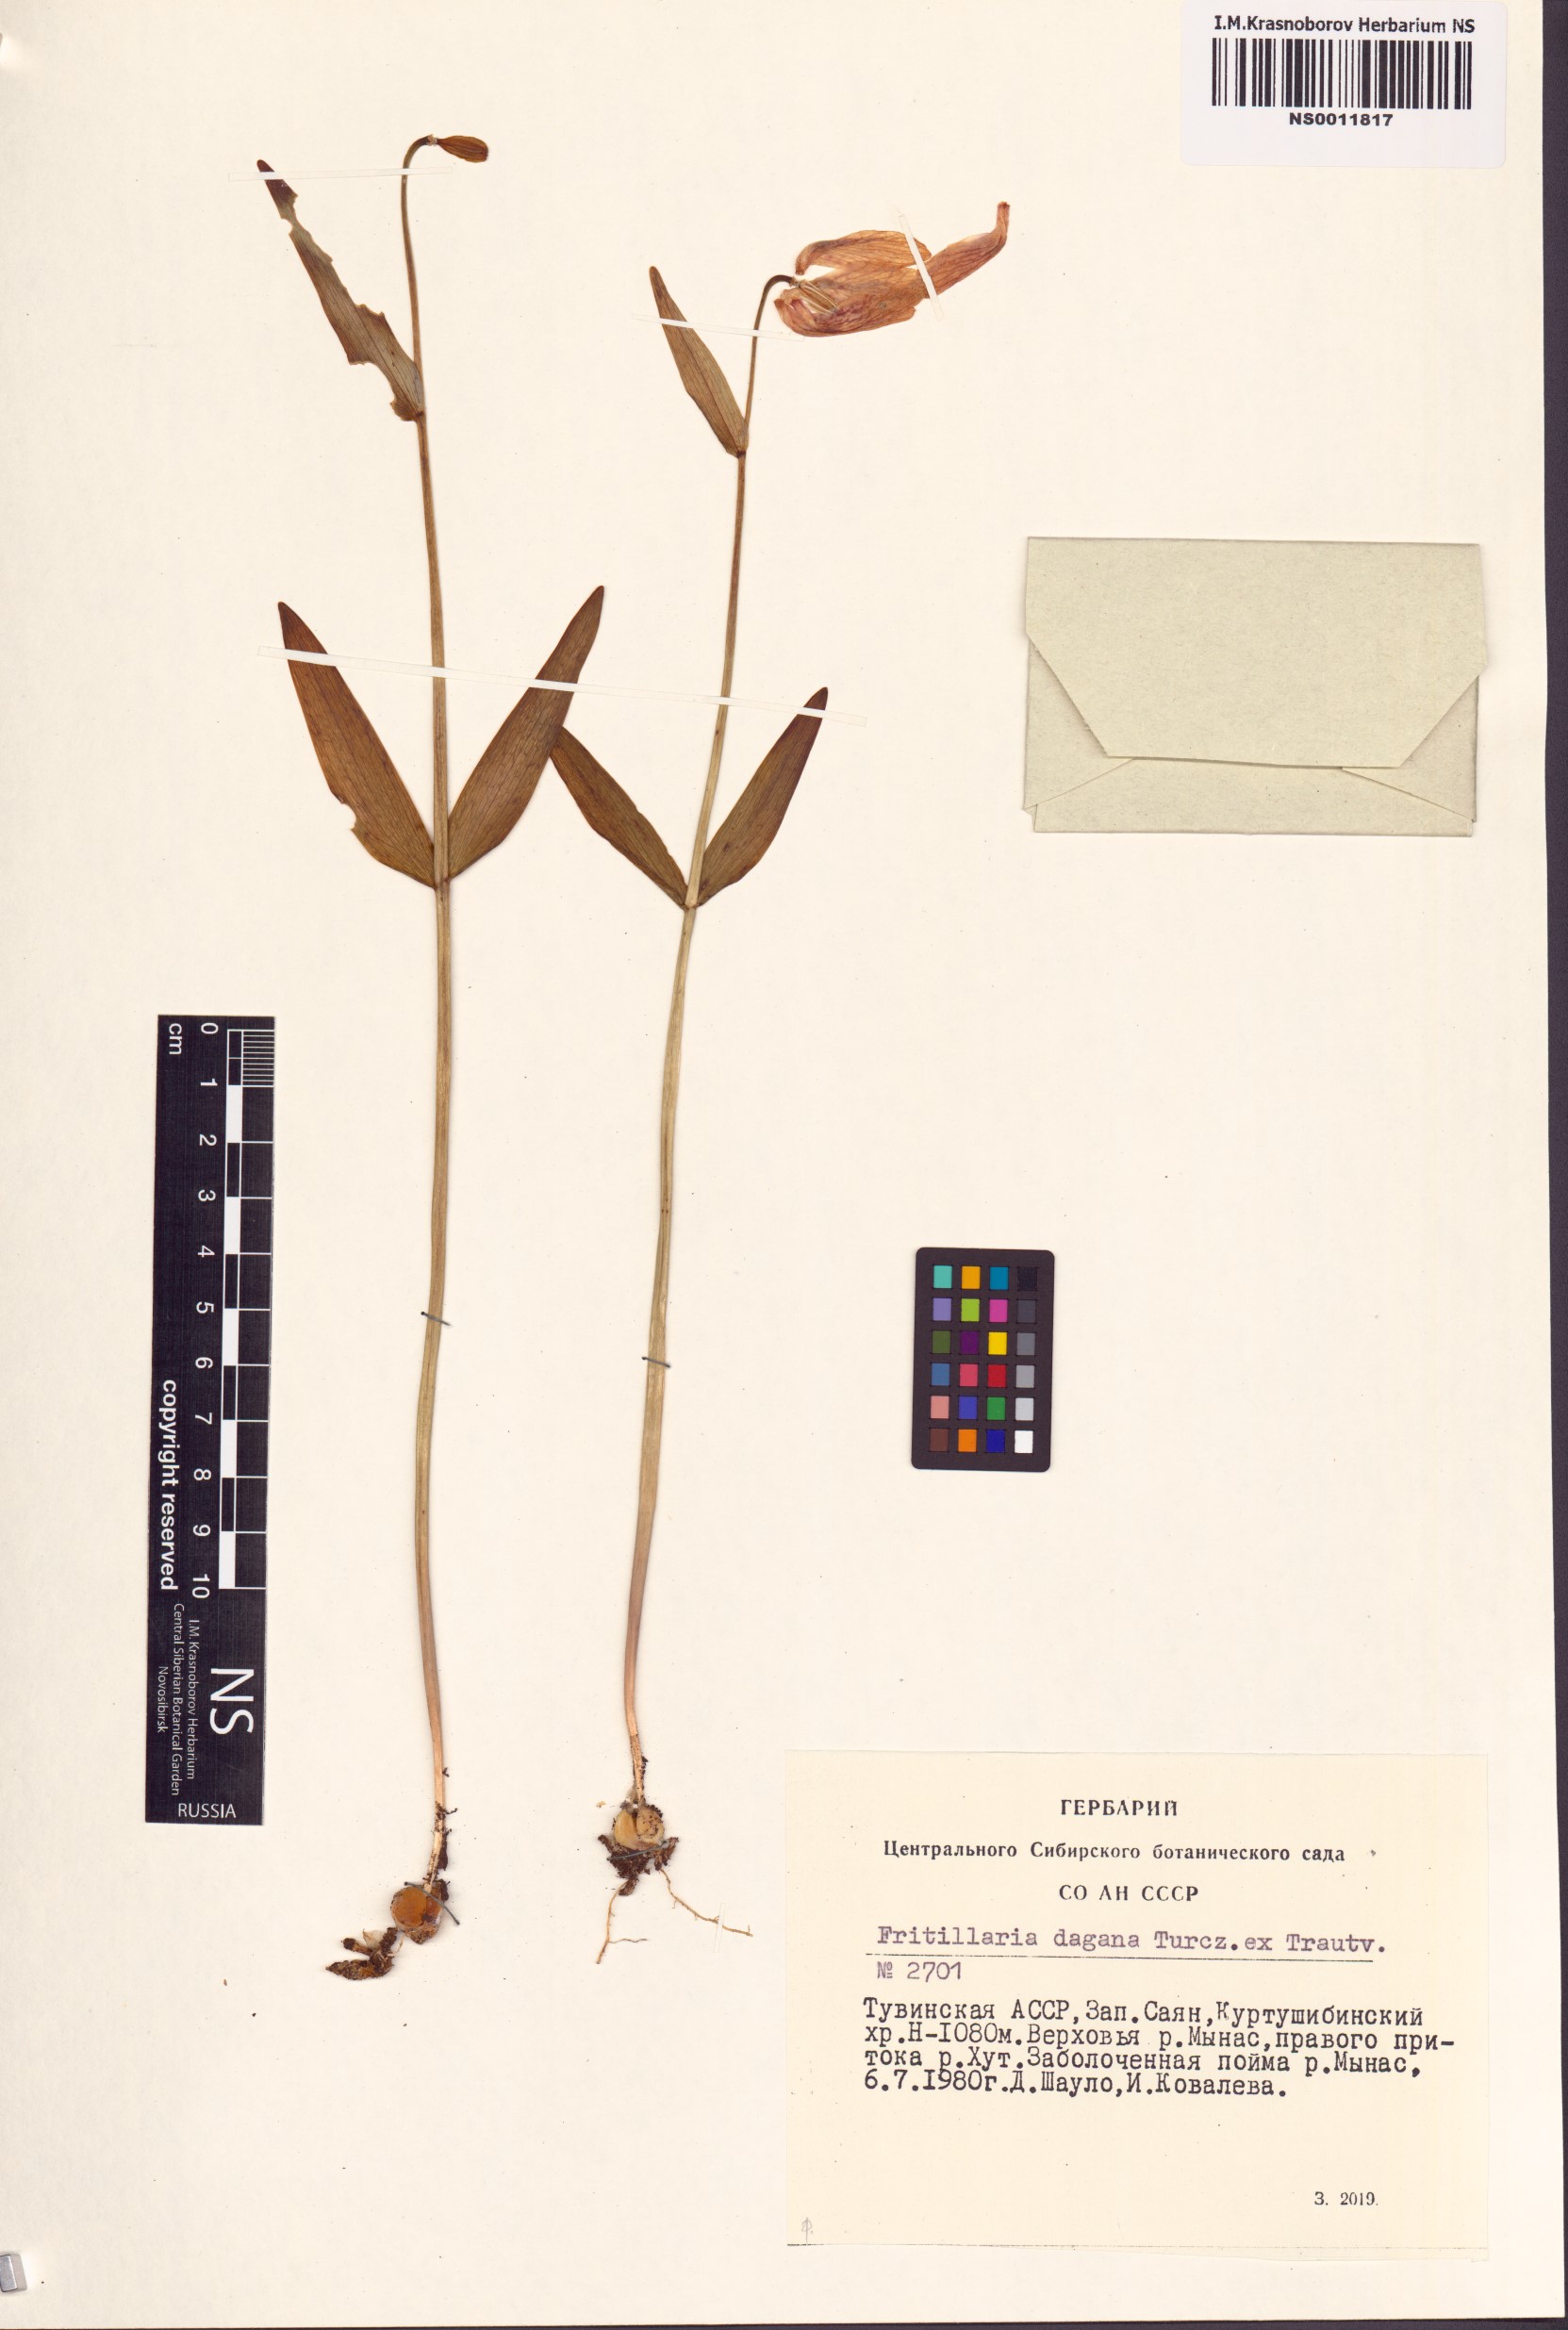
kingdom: Plantae
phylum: Tracheophyta
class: Liliopsida
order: Liliales
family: Liliaceae
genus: Fritillaria
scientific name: Fritillaria dagana
